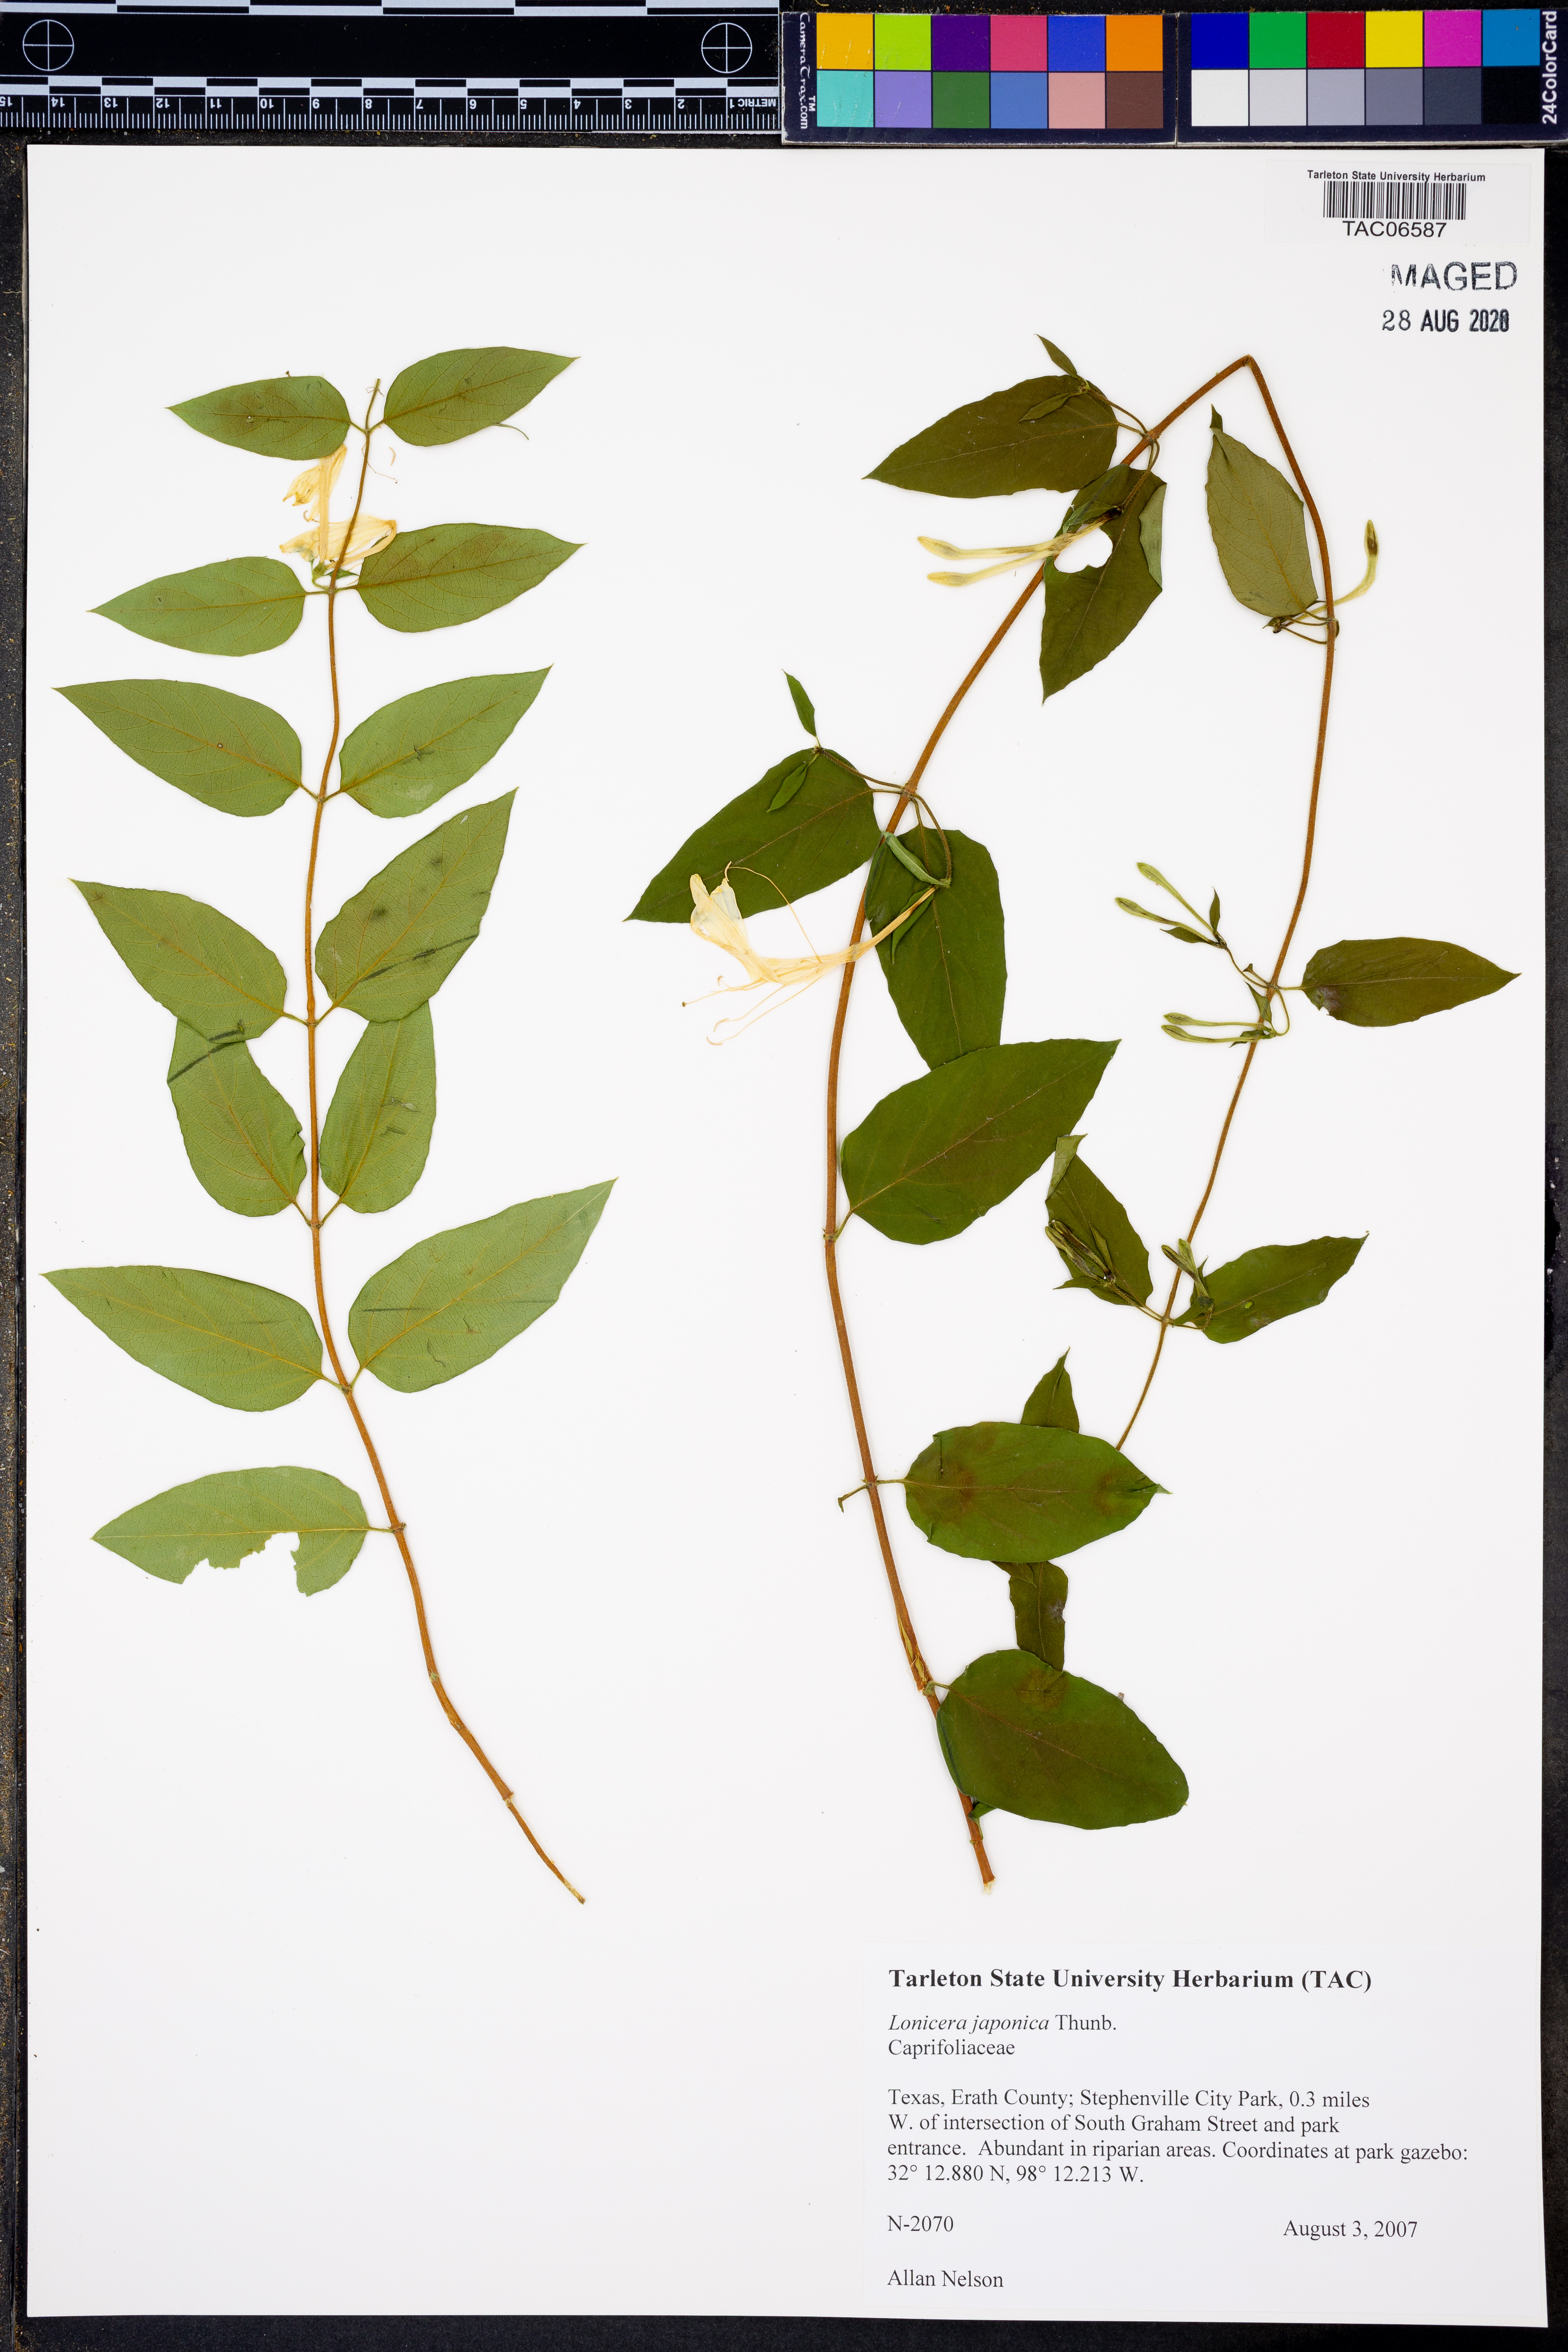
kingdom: Plantae
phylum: Tracheophyta
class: Magnoliopsida
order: Dipsacales
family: Caprifoliaceae
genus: Lonicera
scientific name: Lonicera japonica
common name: Japanese honeysuckle
